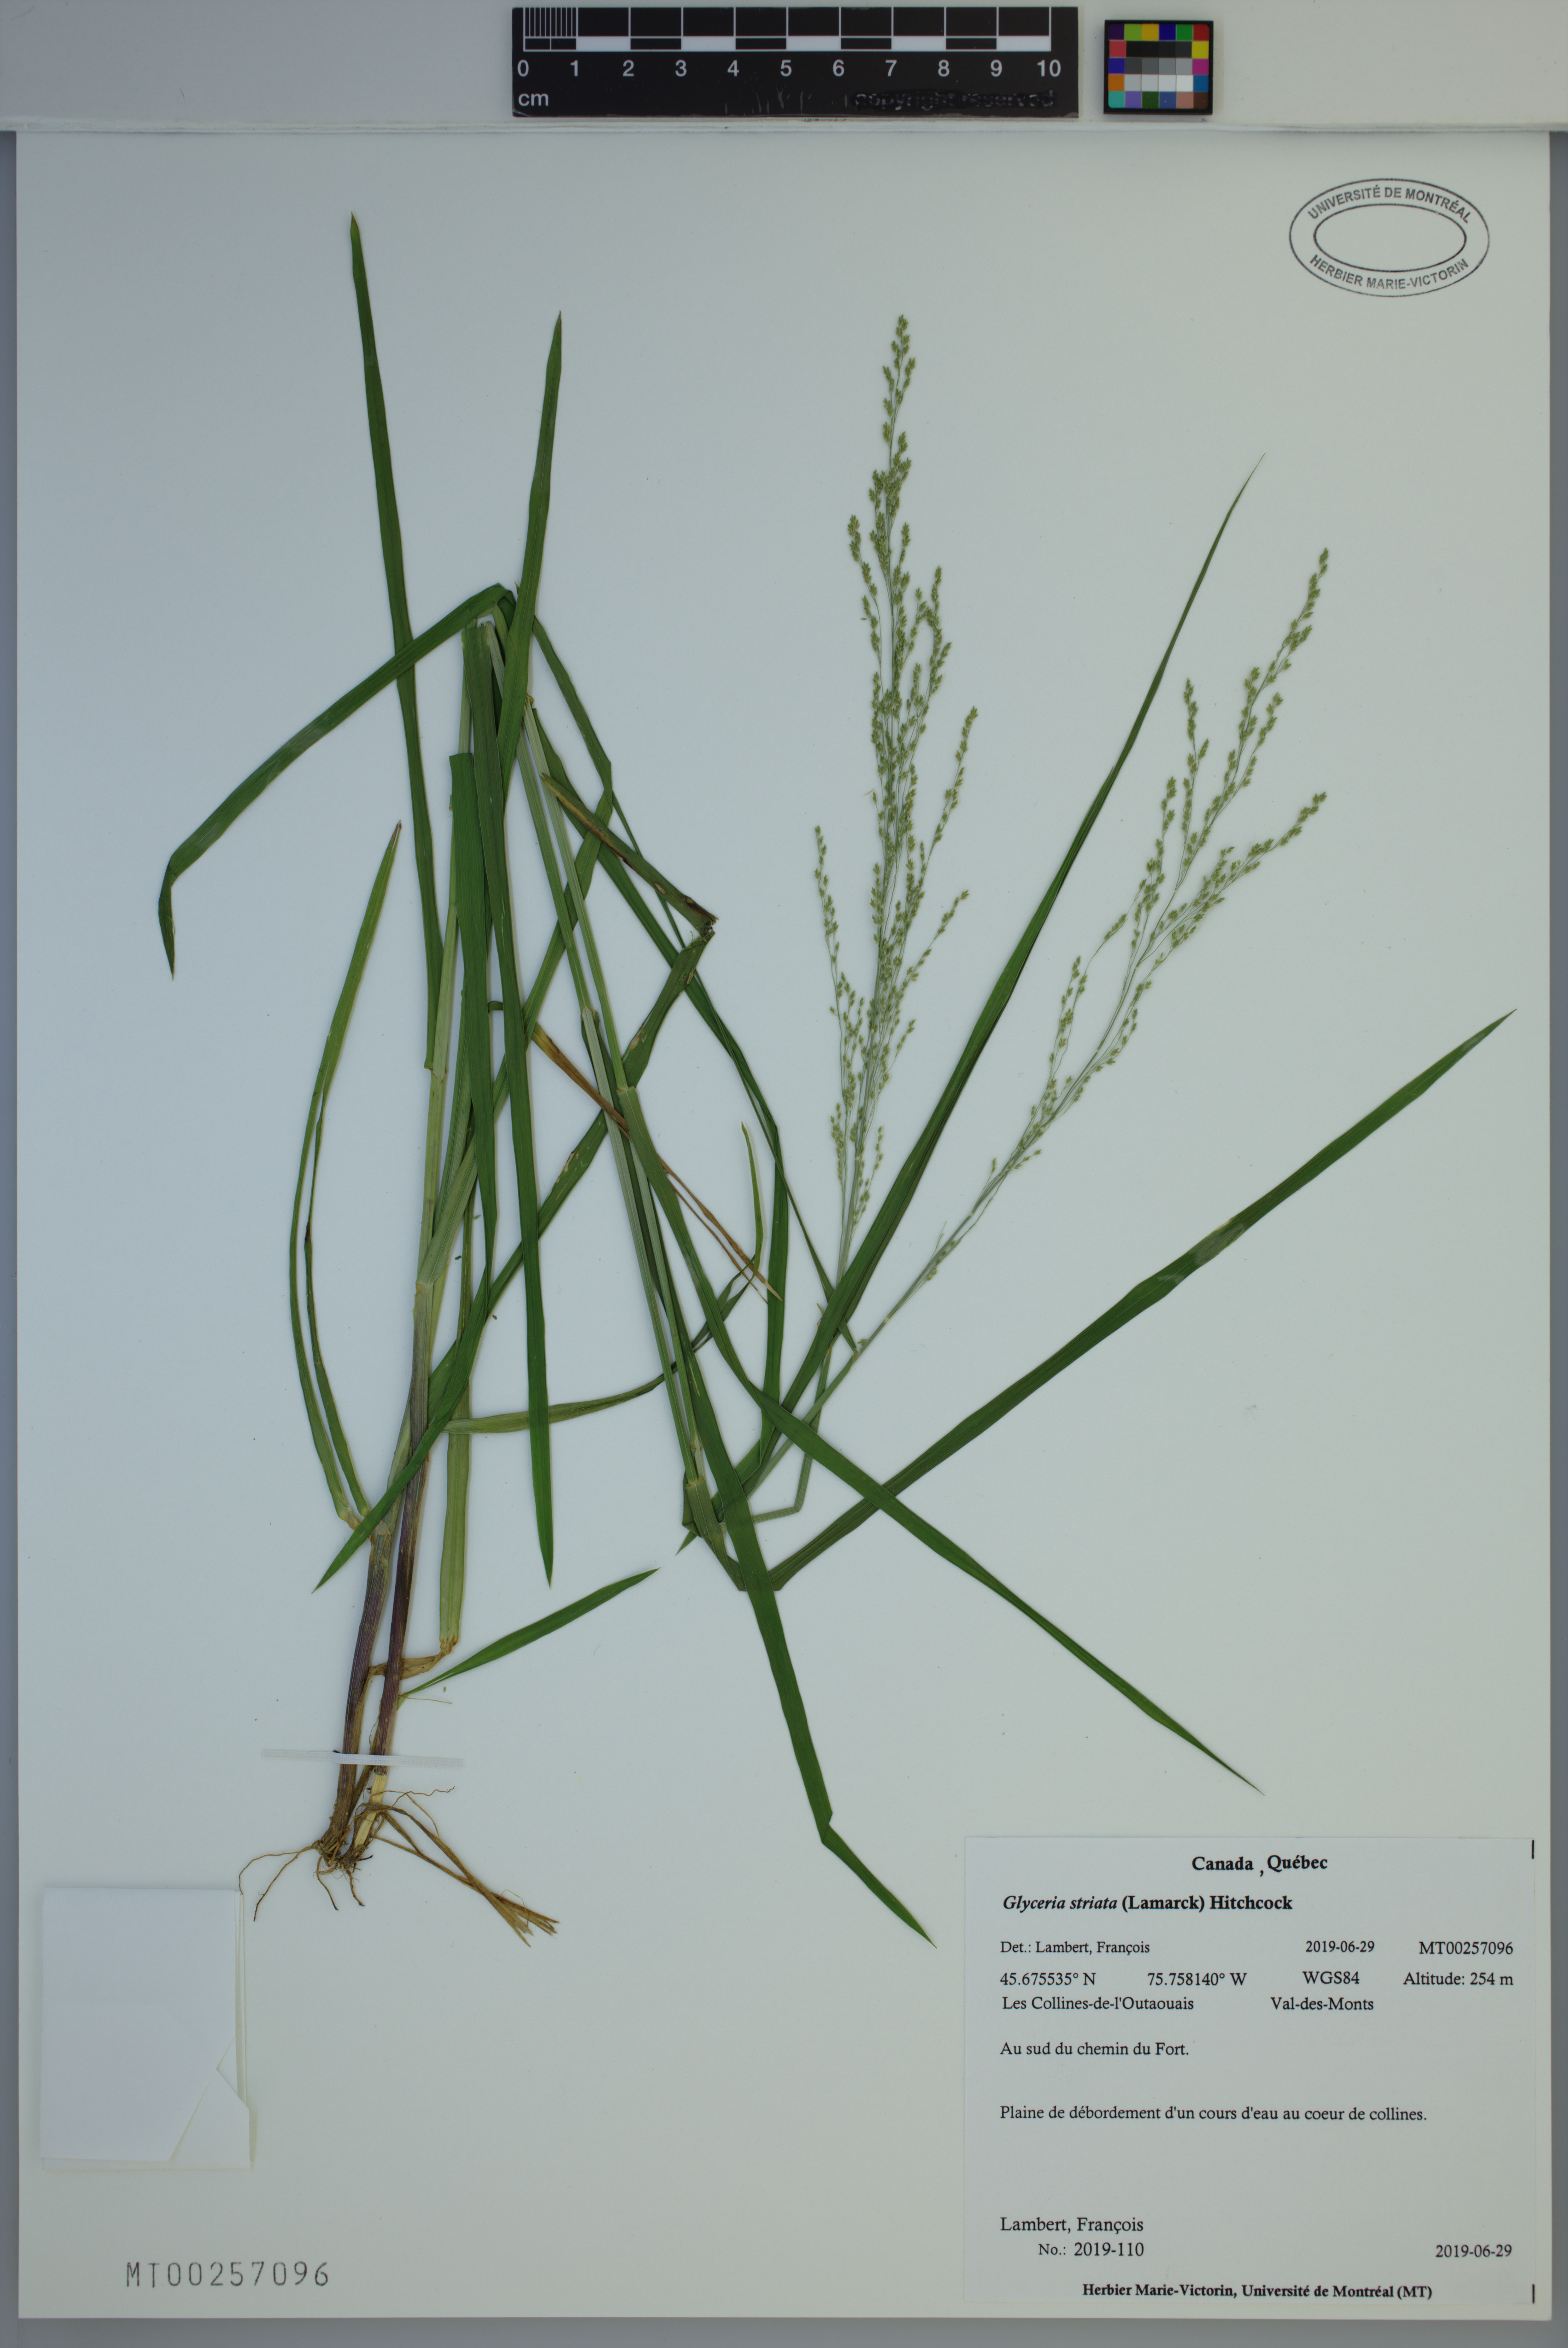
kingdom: Plantae
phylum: Tracheophyta
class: Liliopsida
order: Poales
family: Poaceae
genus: Glyceria
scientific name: Glyceria striata
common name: Fowl manna grass
